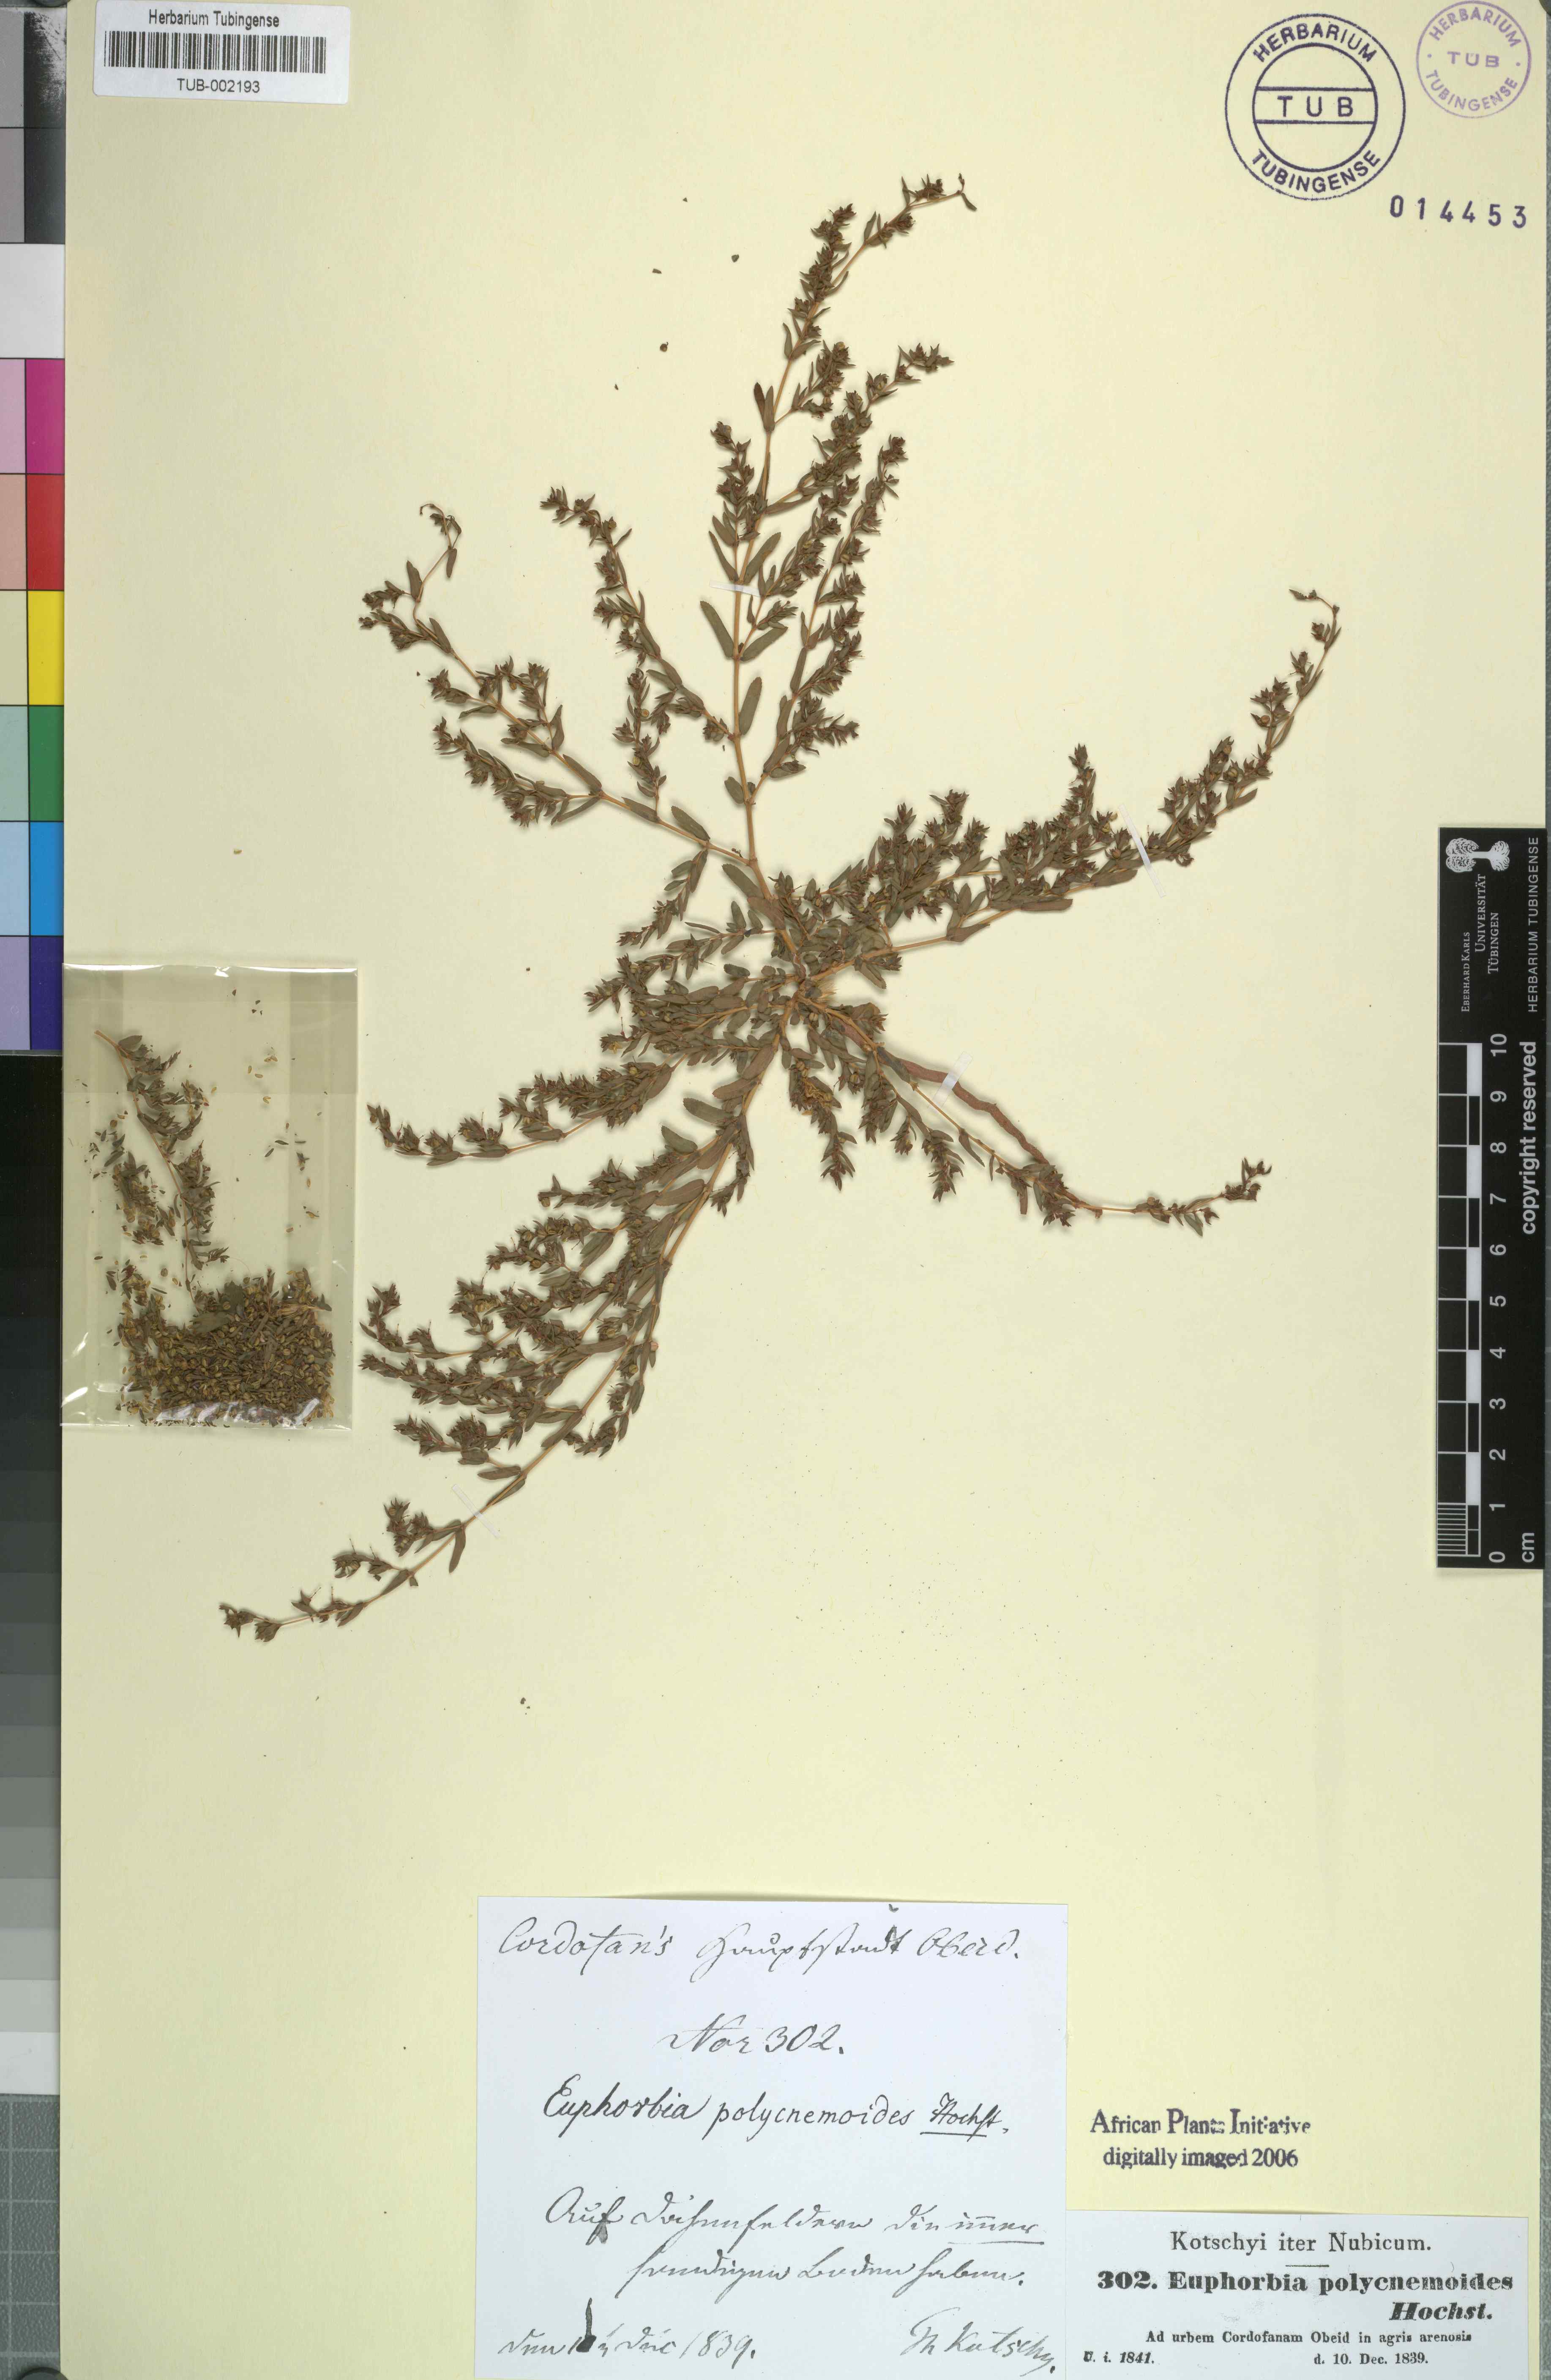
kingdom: Plantae
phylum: Tracheophyta
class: Magnoliopsida
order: Malpighiales
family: Euphorbiaceae
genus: Euphorbia
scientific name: Euphorbia polycnemoides
